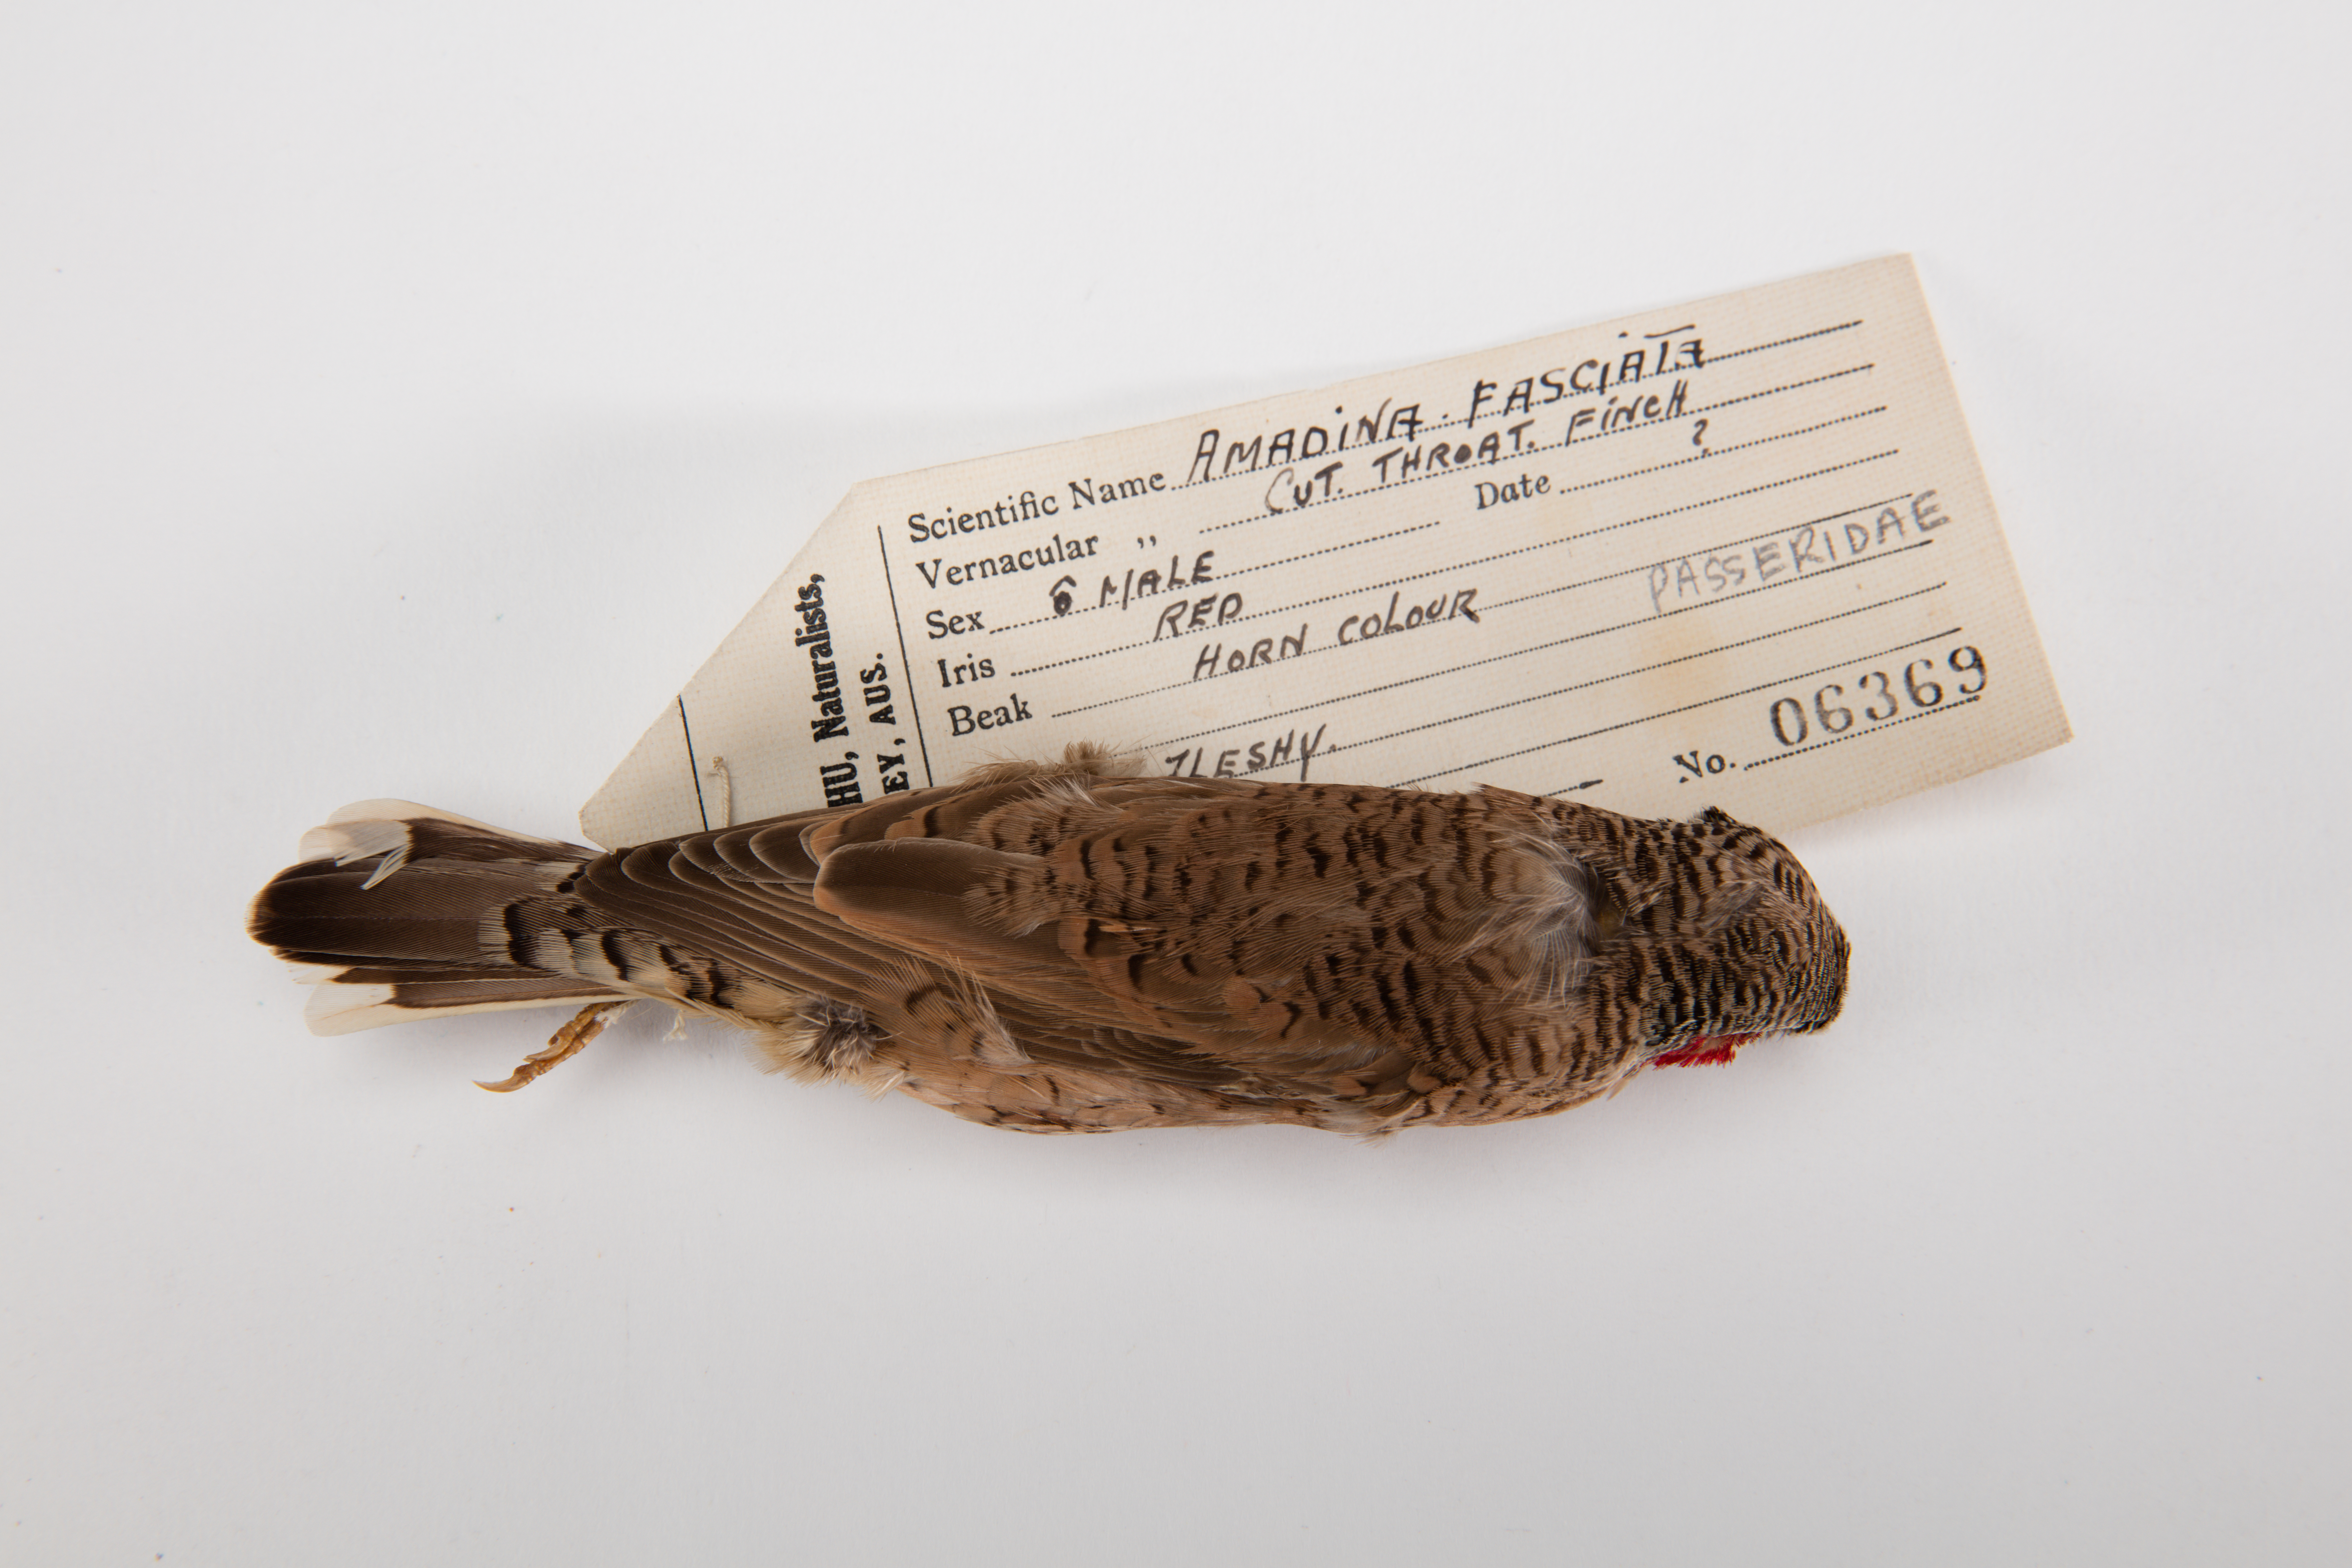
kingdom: Animalia
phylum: Chordata
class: Aves
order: Passeriformes
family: Estrildidae
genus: Amadina
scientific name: Amadina fasciata
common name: Cut-throat finch
